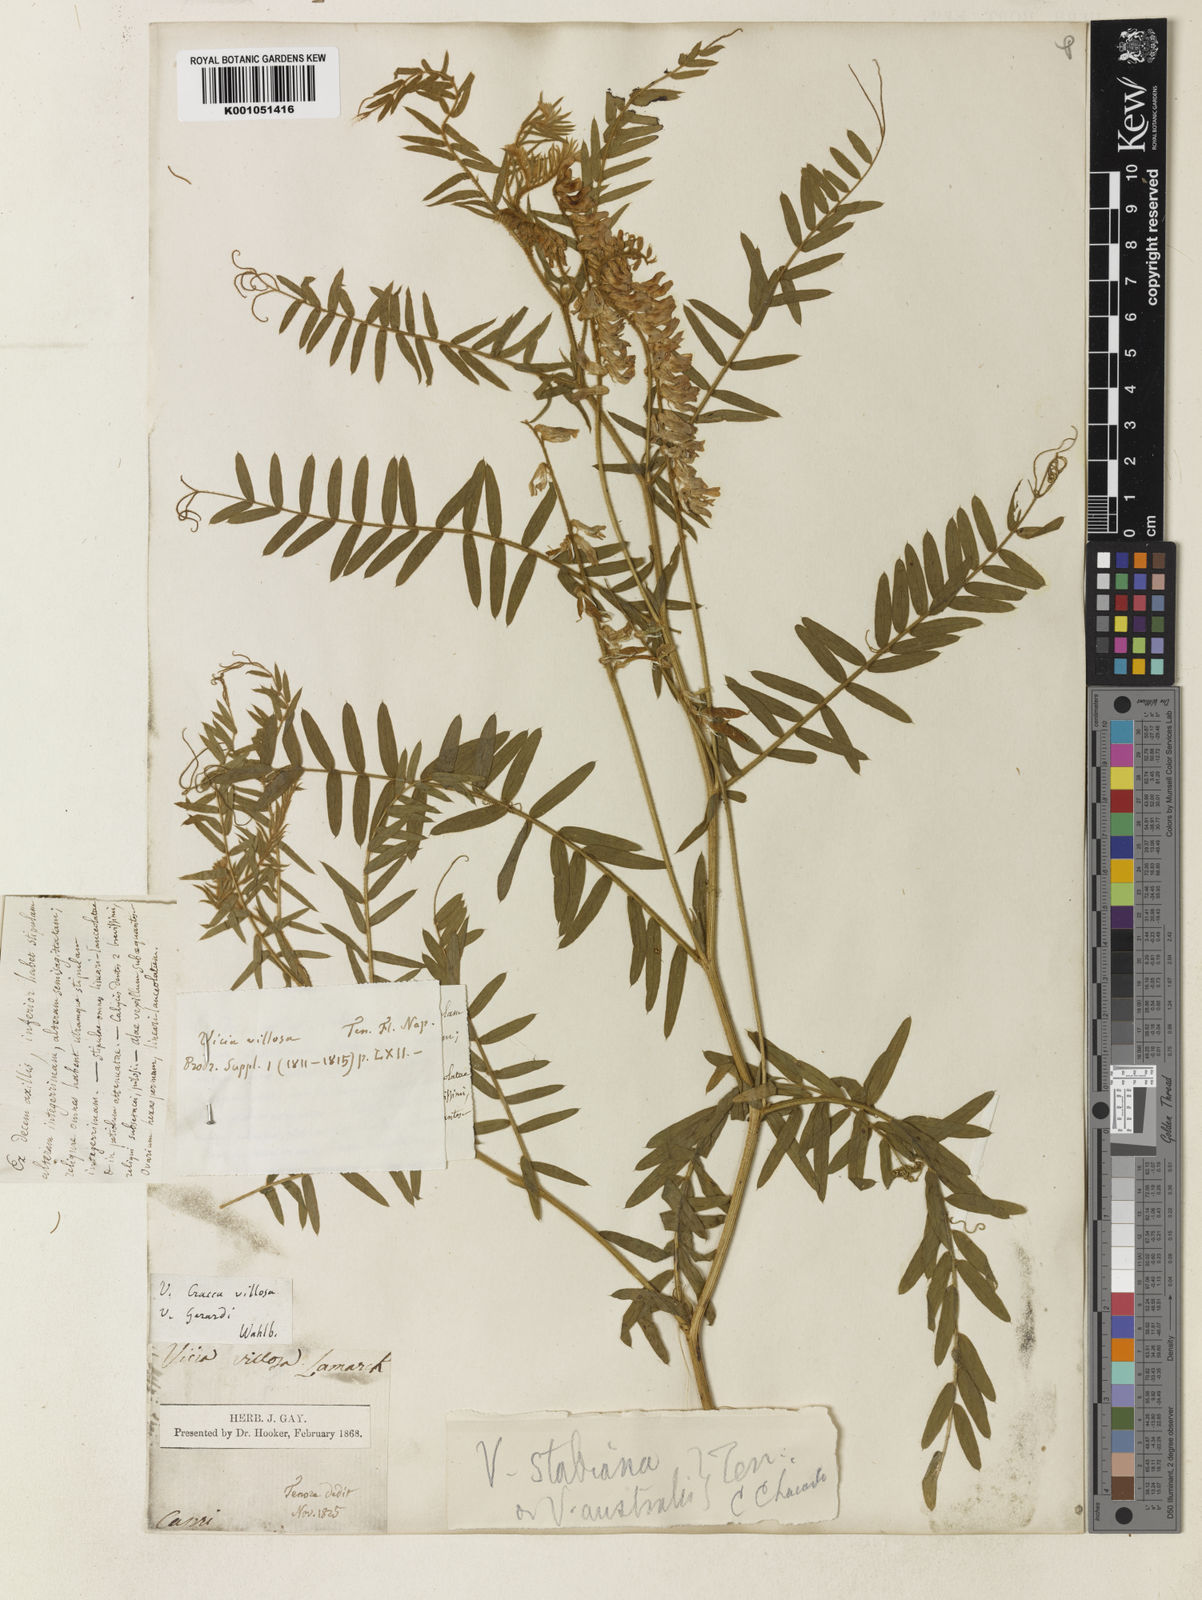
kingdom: Plantae
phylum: Tracheophyta
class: Magnoliopsida
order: Fabales
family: Fabaceae
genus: Vicia
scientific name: Vicia
